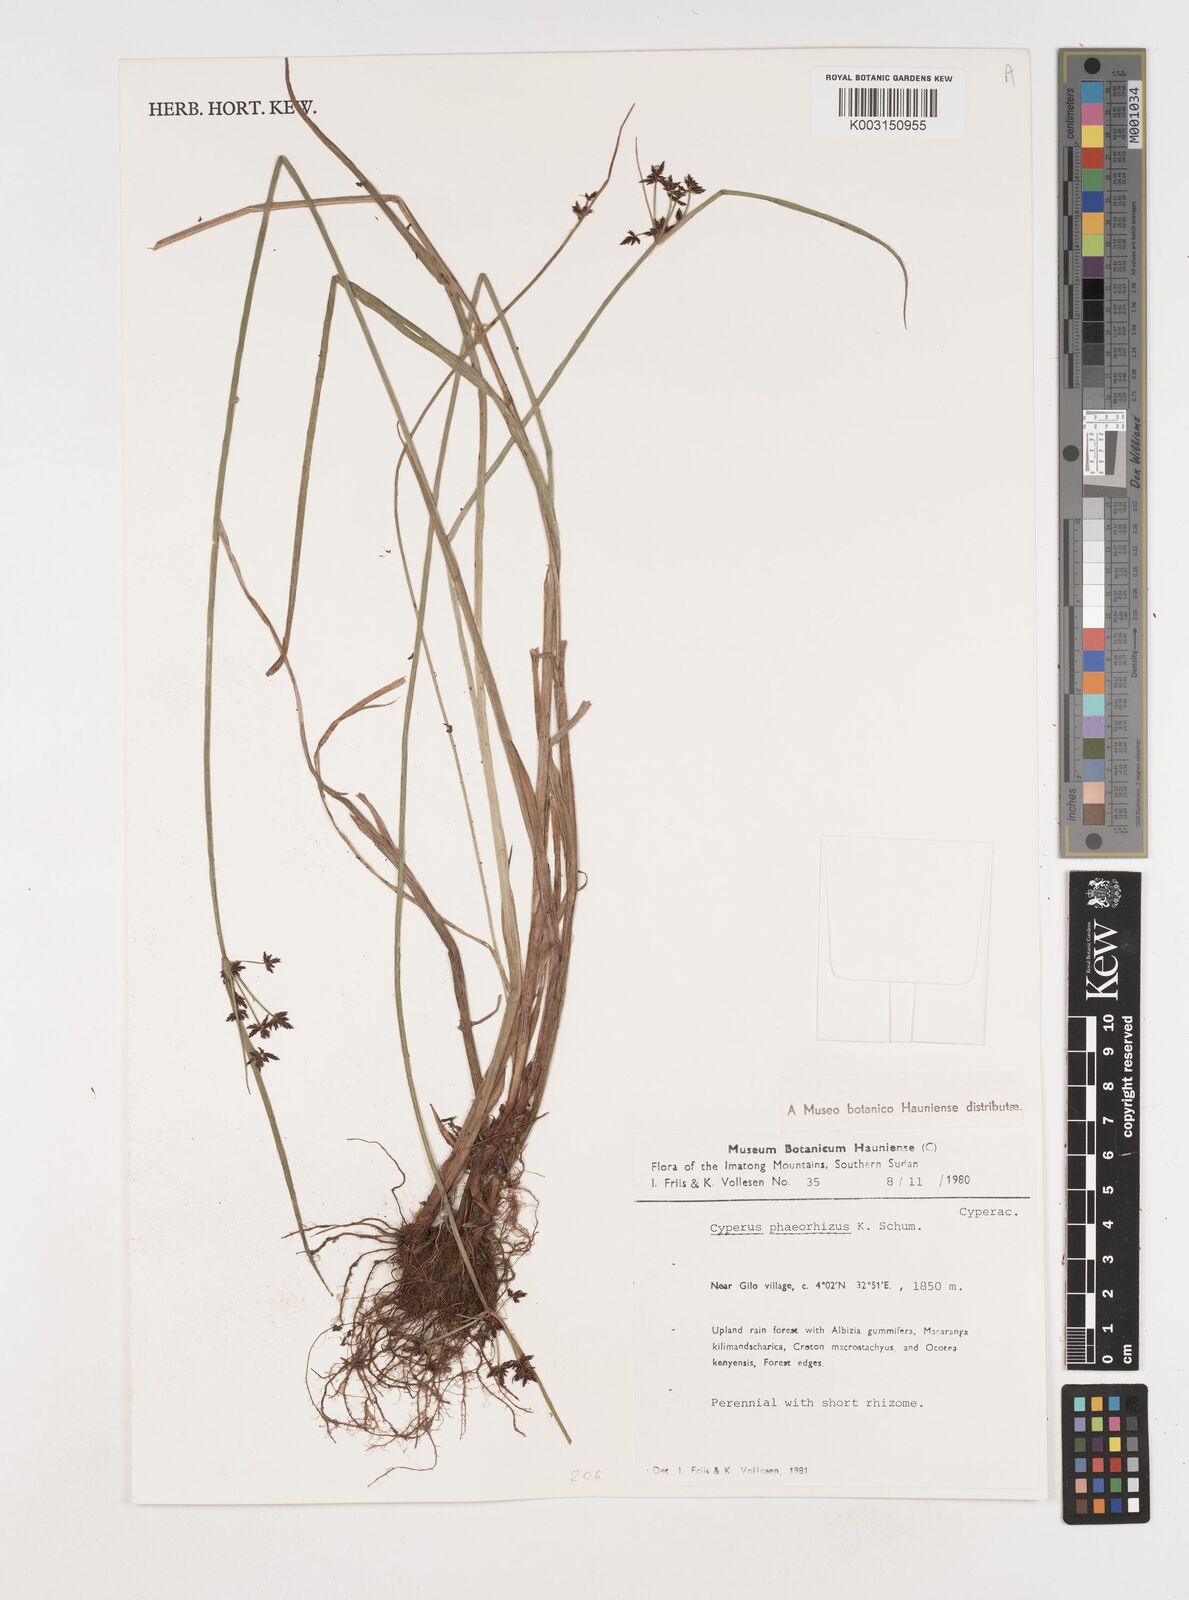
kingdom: Plantae
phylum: Tracheophyta
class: Liliopsida
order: Poales
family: Cyperaceae
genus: Cyperus
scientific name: Cyperus haspan
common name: Haspan flatsedge
